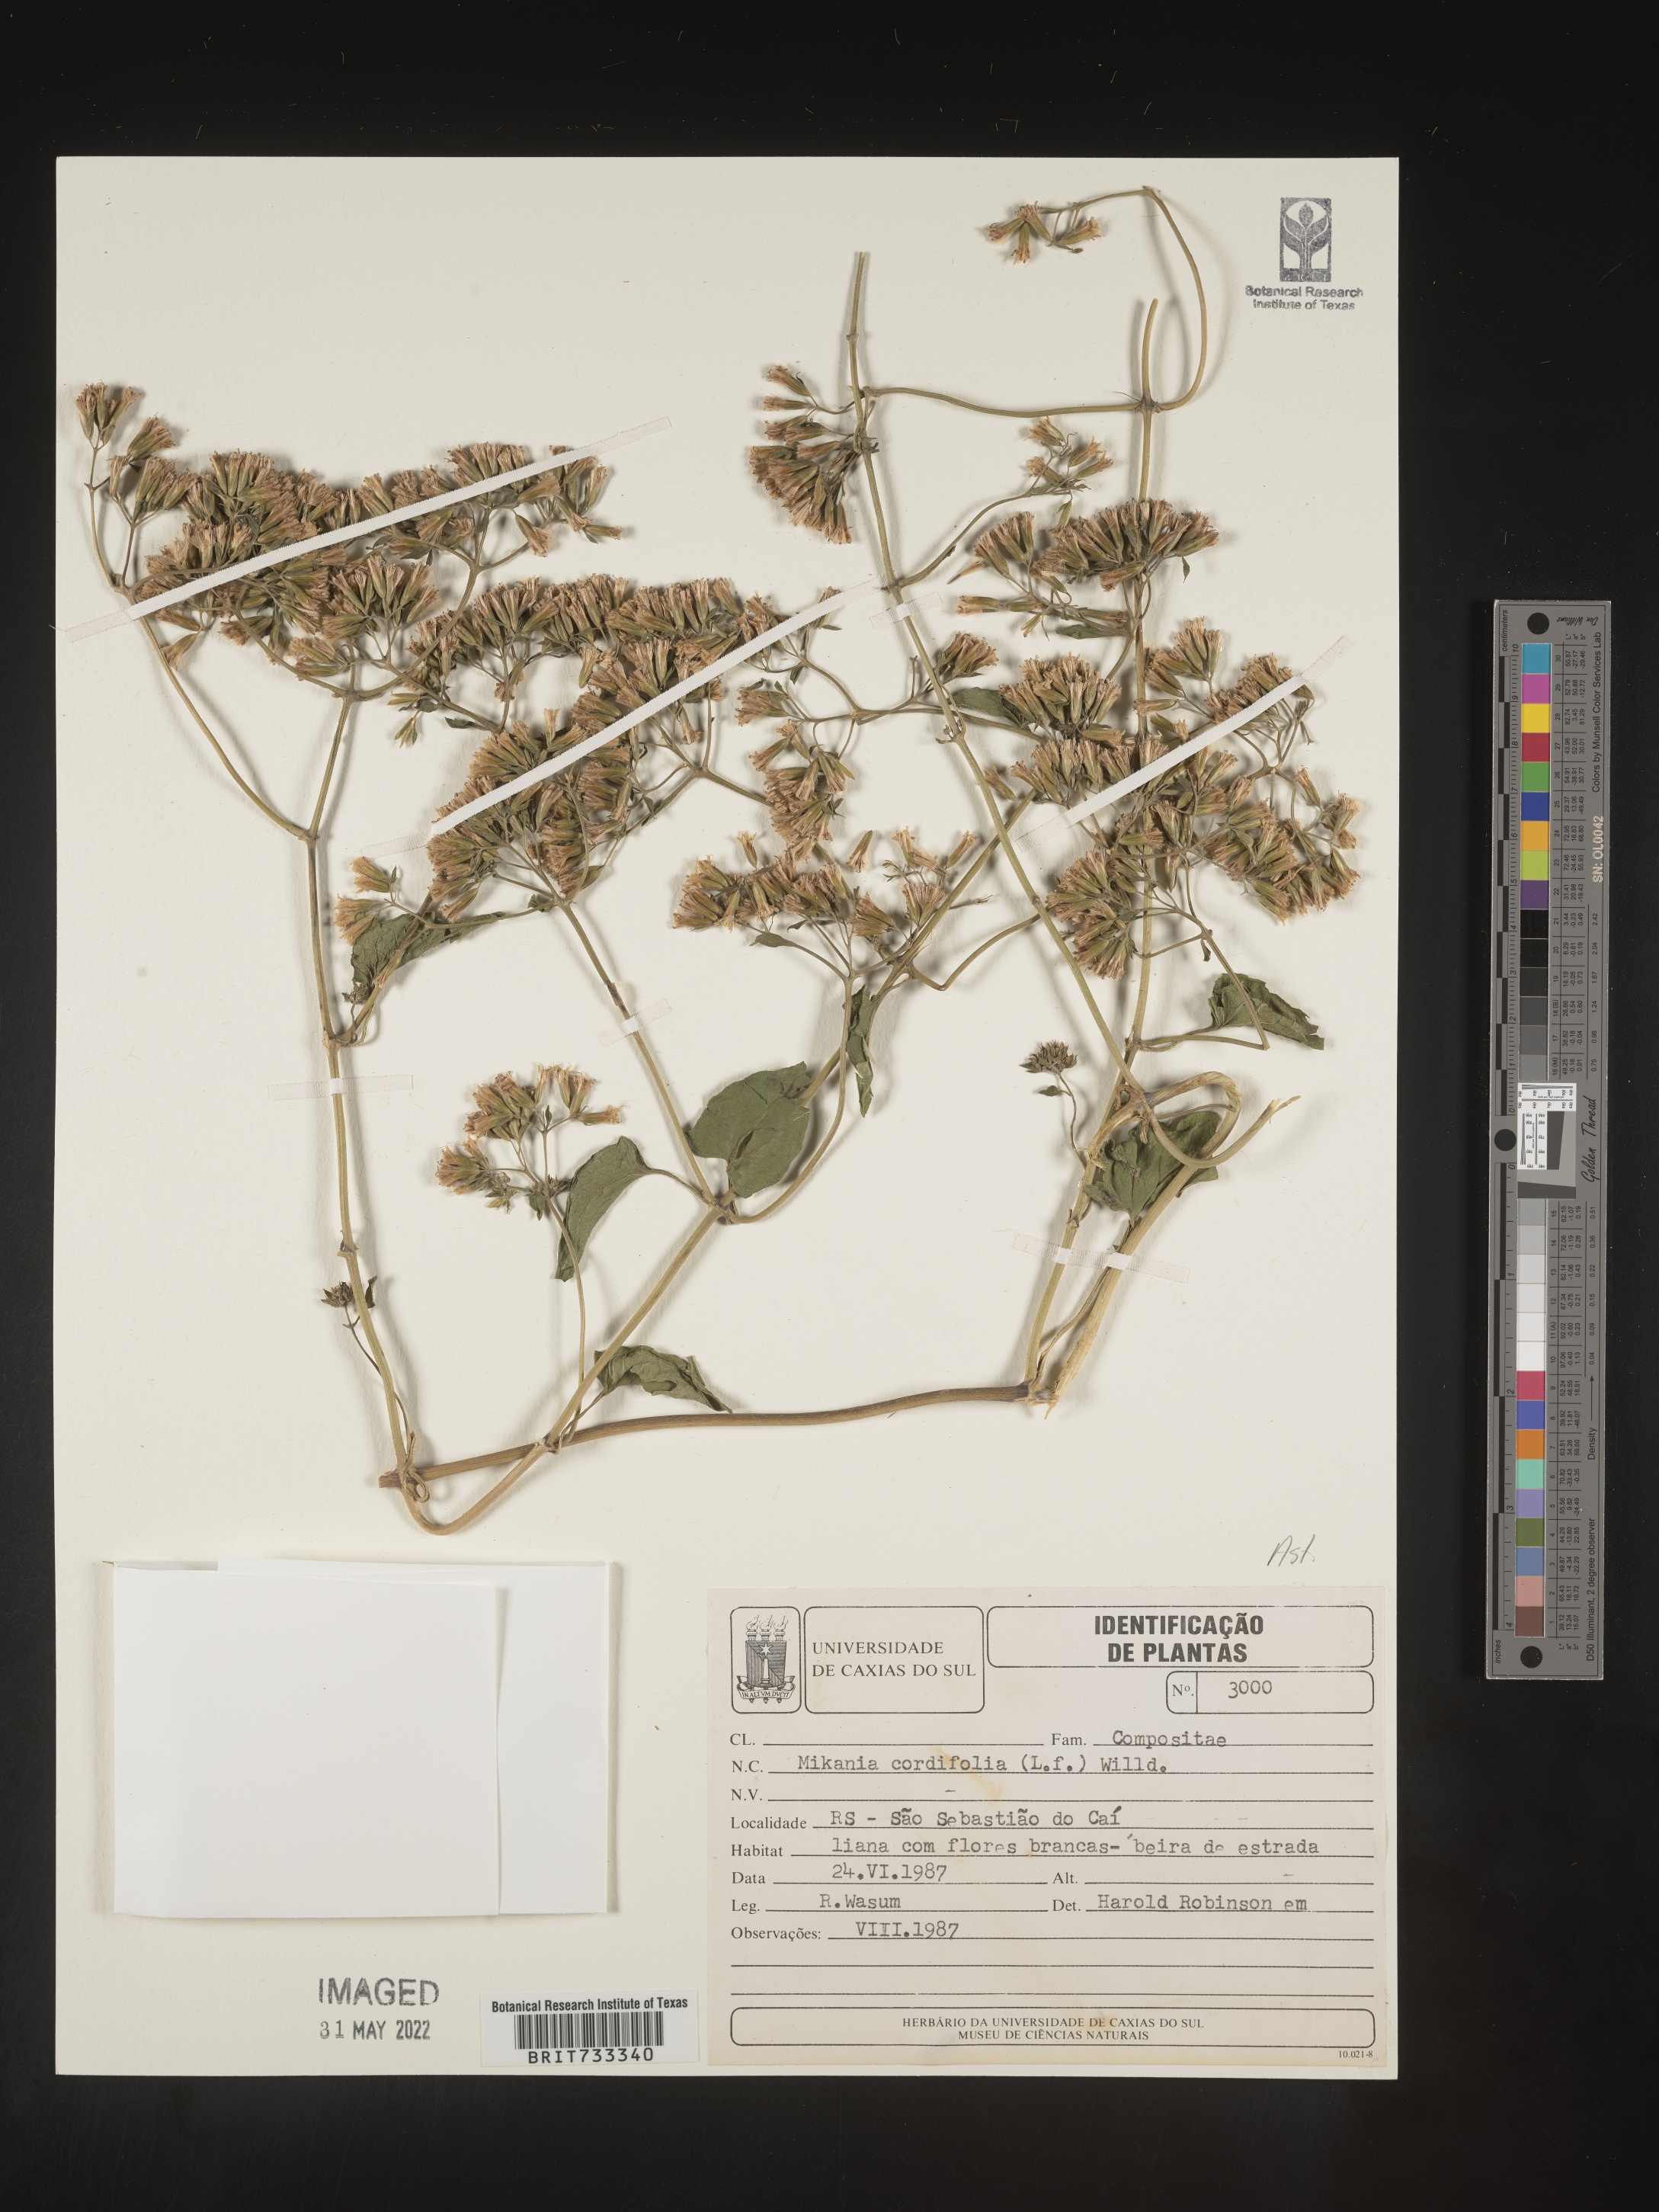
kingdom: Plantae
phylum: Tracheophyta
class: Magnoliopsida
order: Asterales
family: Asteraceae
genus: Mikania
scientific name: Mikania
